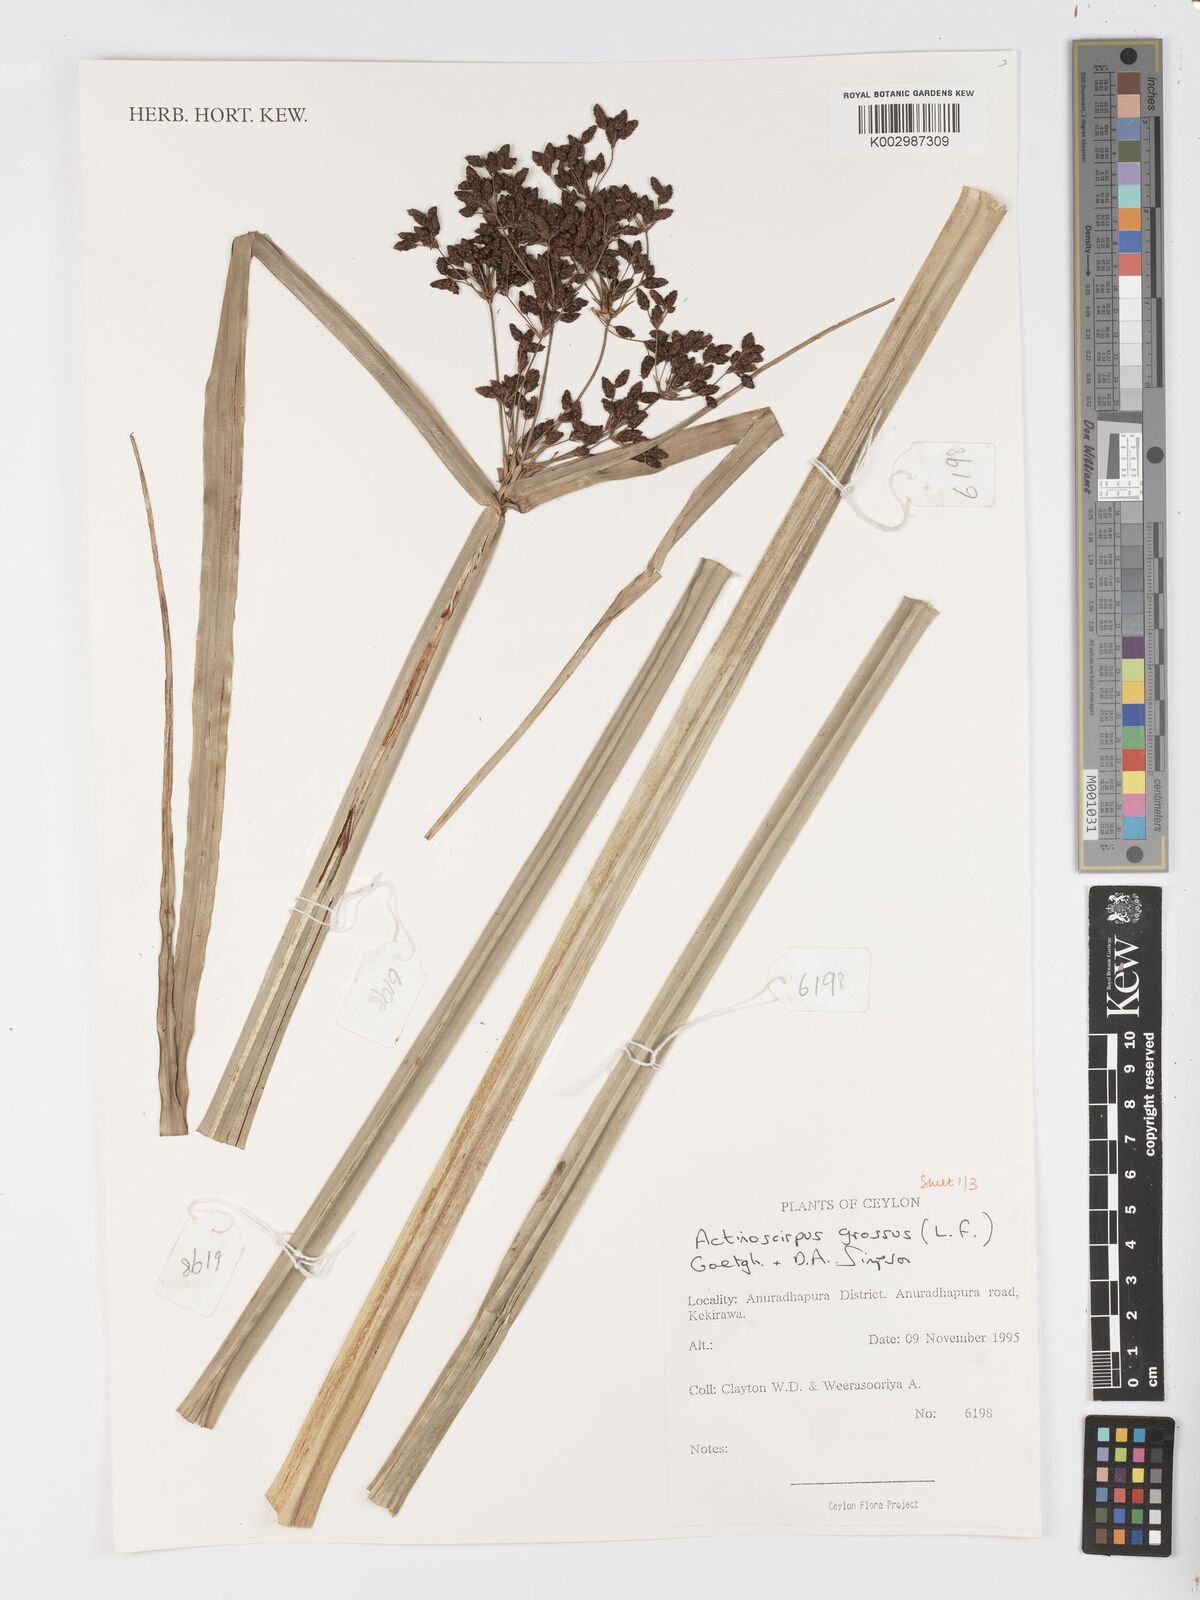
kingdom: Plantae
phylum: Tracheophyta
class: Liliopsida
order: Poales
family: Cyperaceae
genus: Actinoscirpus
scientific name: Actinoscirpus grossus
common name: Giant bur rush
